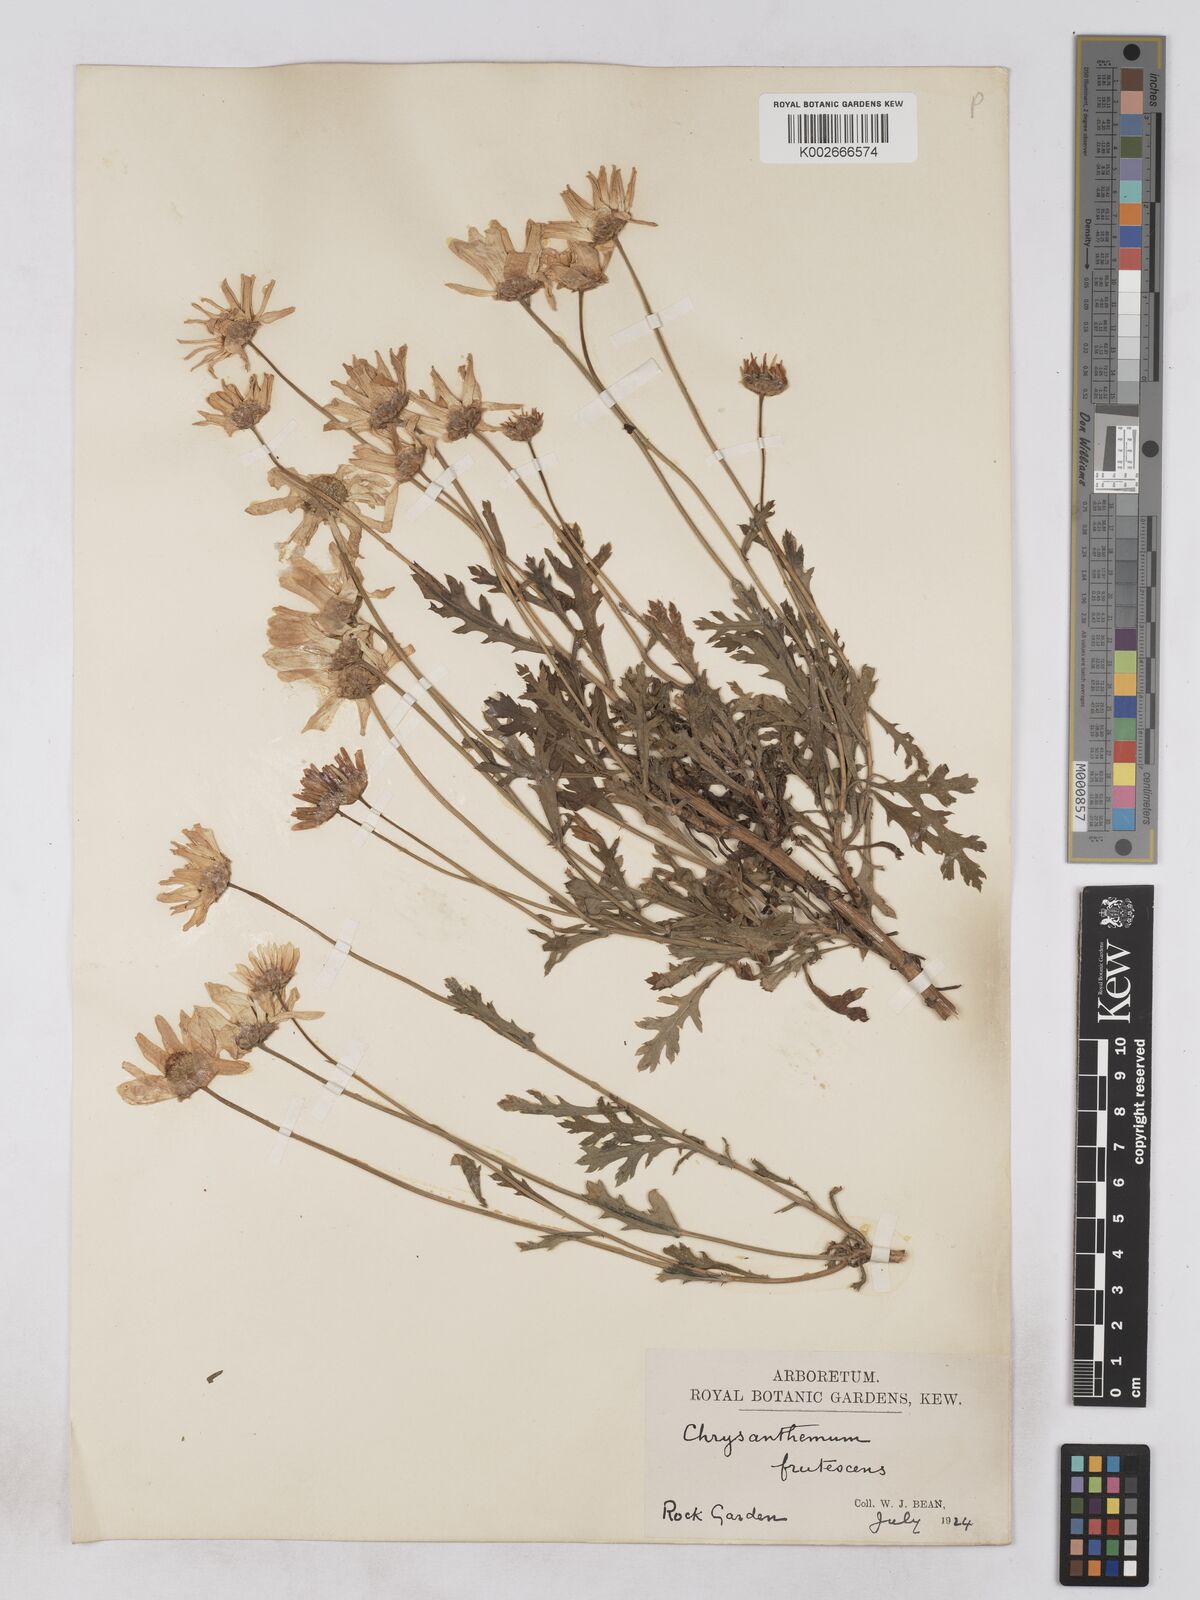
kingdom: Plantae
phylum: Tracheophyta
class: Magnoliopsida
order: Asterales
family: Asteraceae
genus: Argyranthemum
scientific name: Argyranthemum frutescens
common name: Paris daisy
